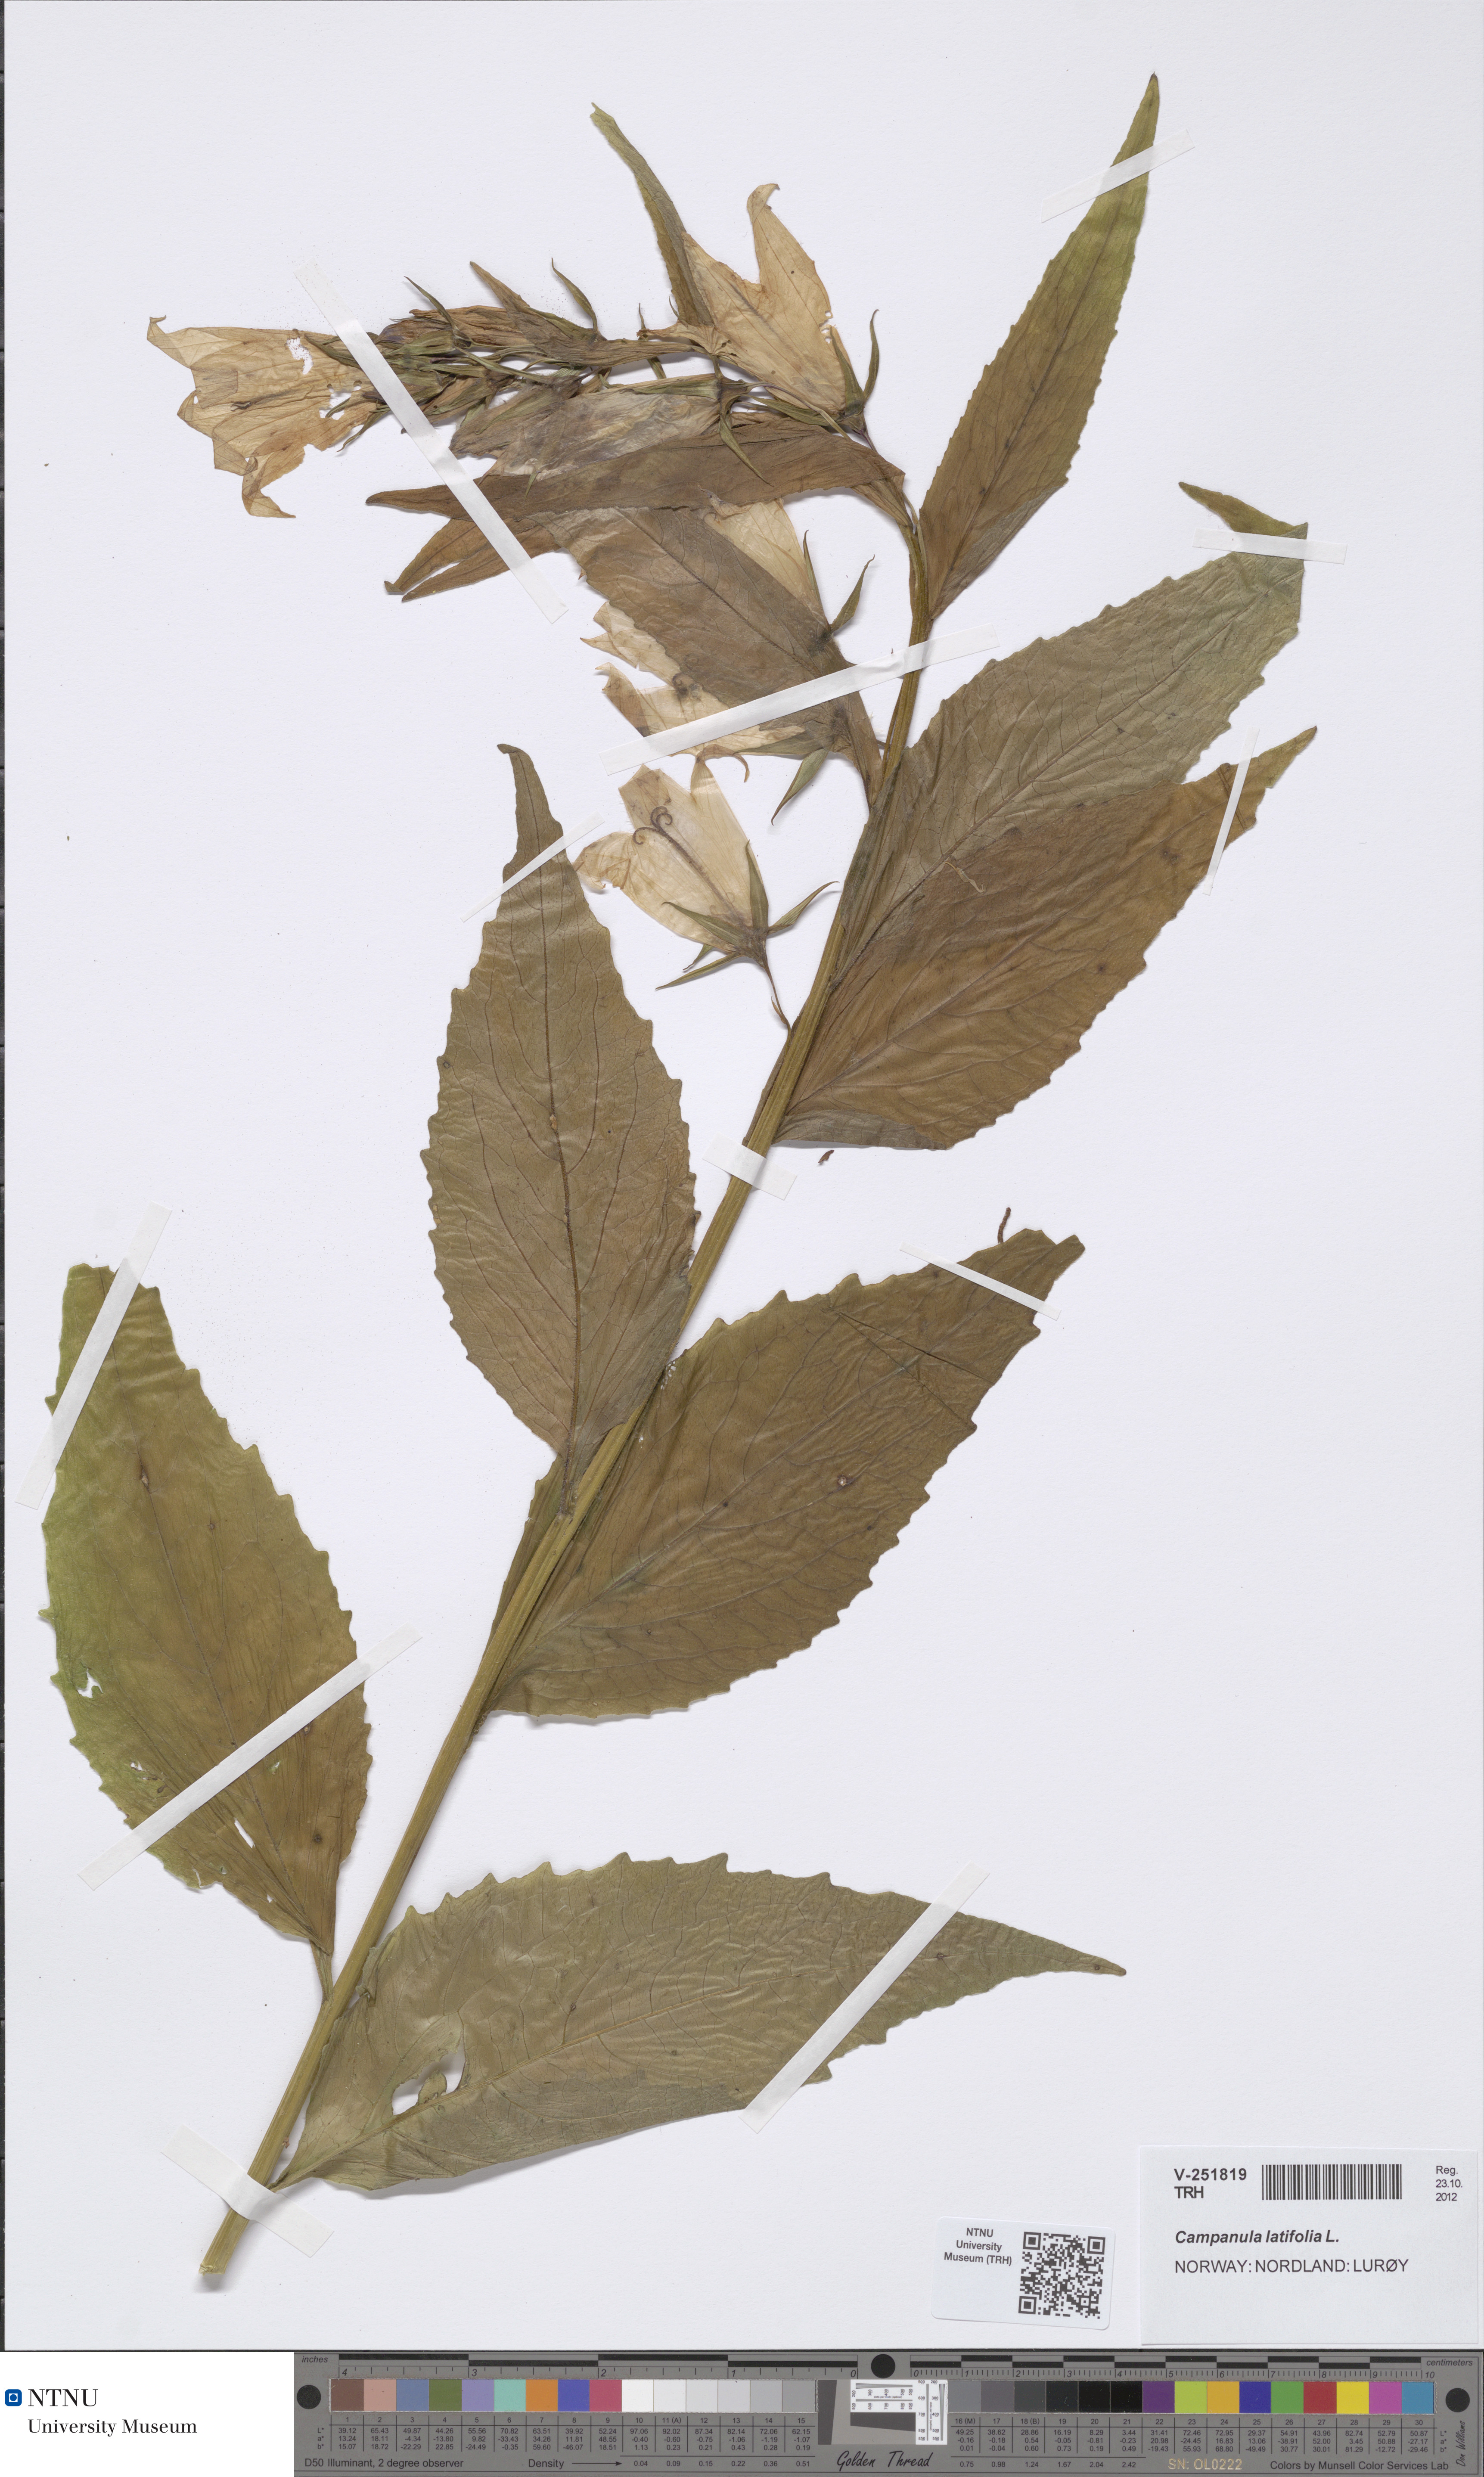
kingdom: Plantae
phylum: Tracheophyta
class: Magnoliopsida
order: Asterales
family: Campanulaceae
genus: Campanula
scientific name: Campanula latifolia
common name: Giant bellflower
